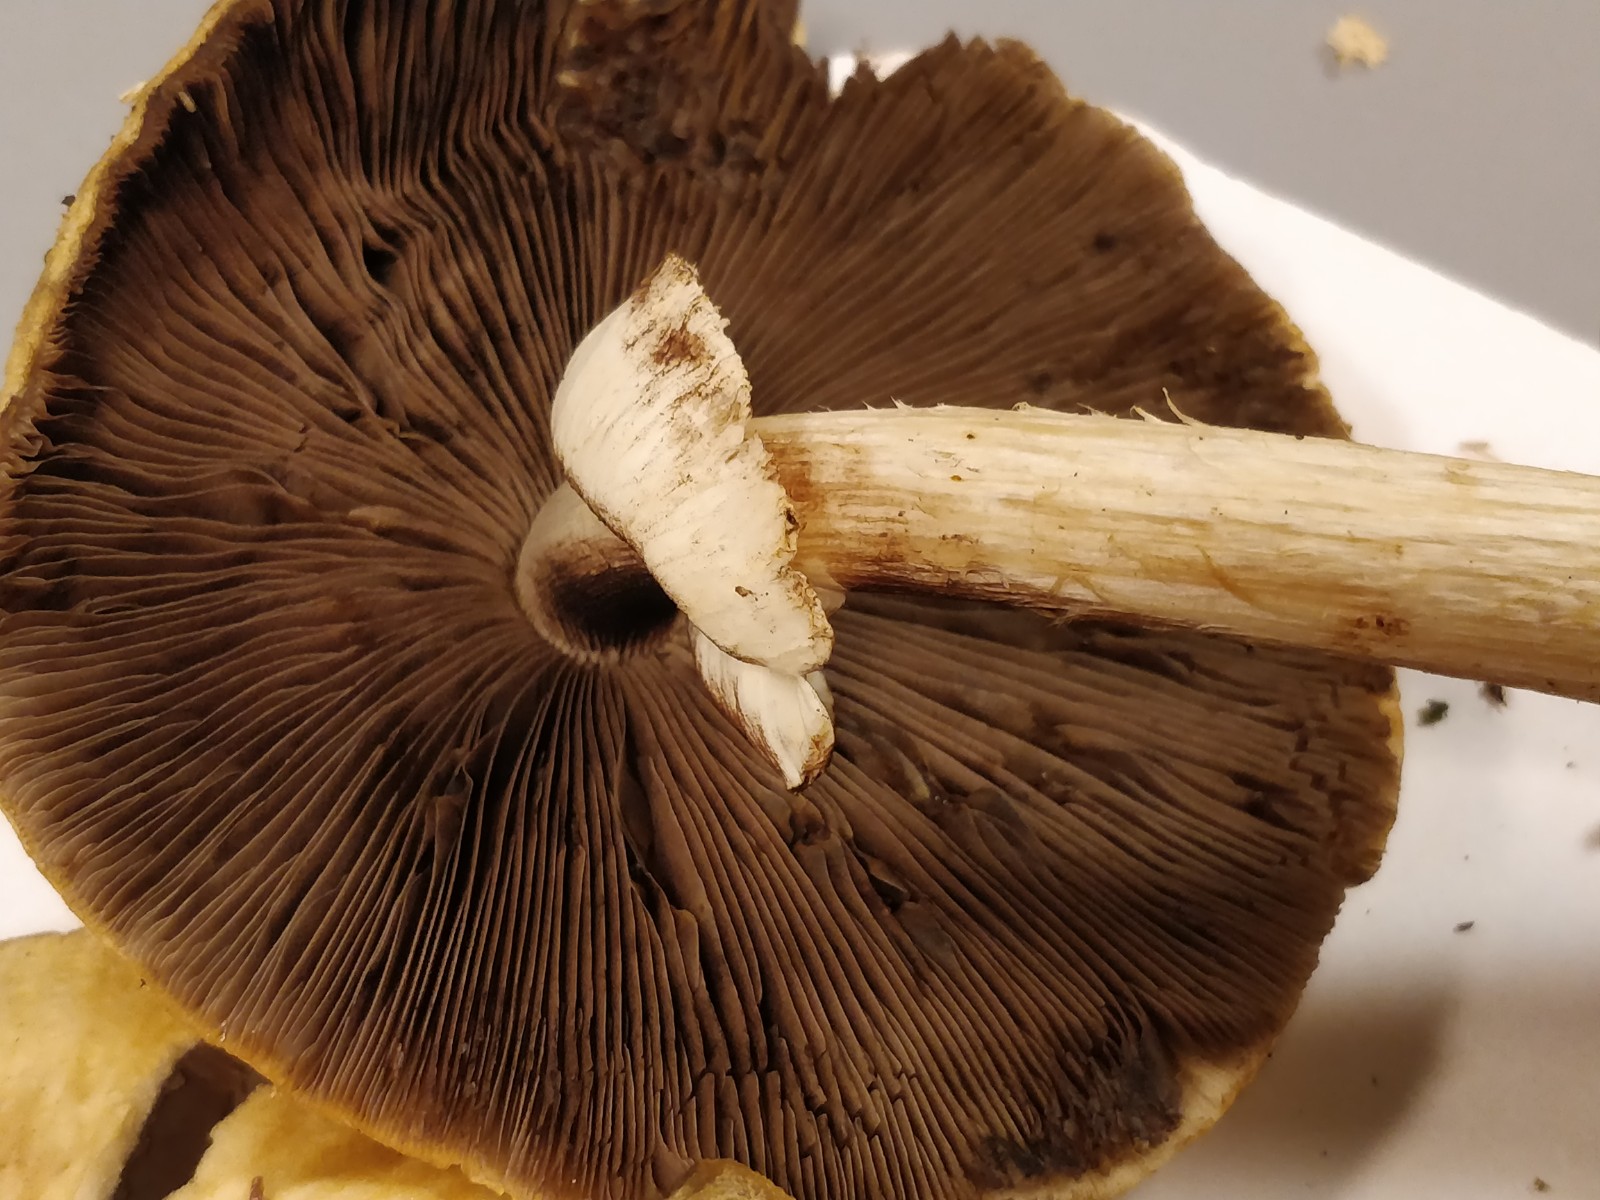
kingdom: Fungi
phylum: Basidiomycota
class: Agaricomycetes
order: Agaricales
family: Strophariaceae
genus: Agrocybe
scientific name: Agrocybe rivulosa
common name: året agerhat
